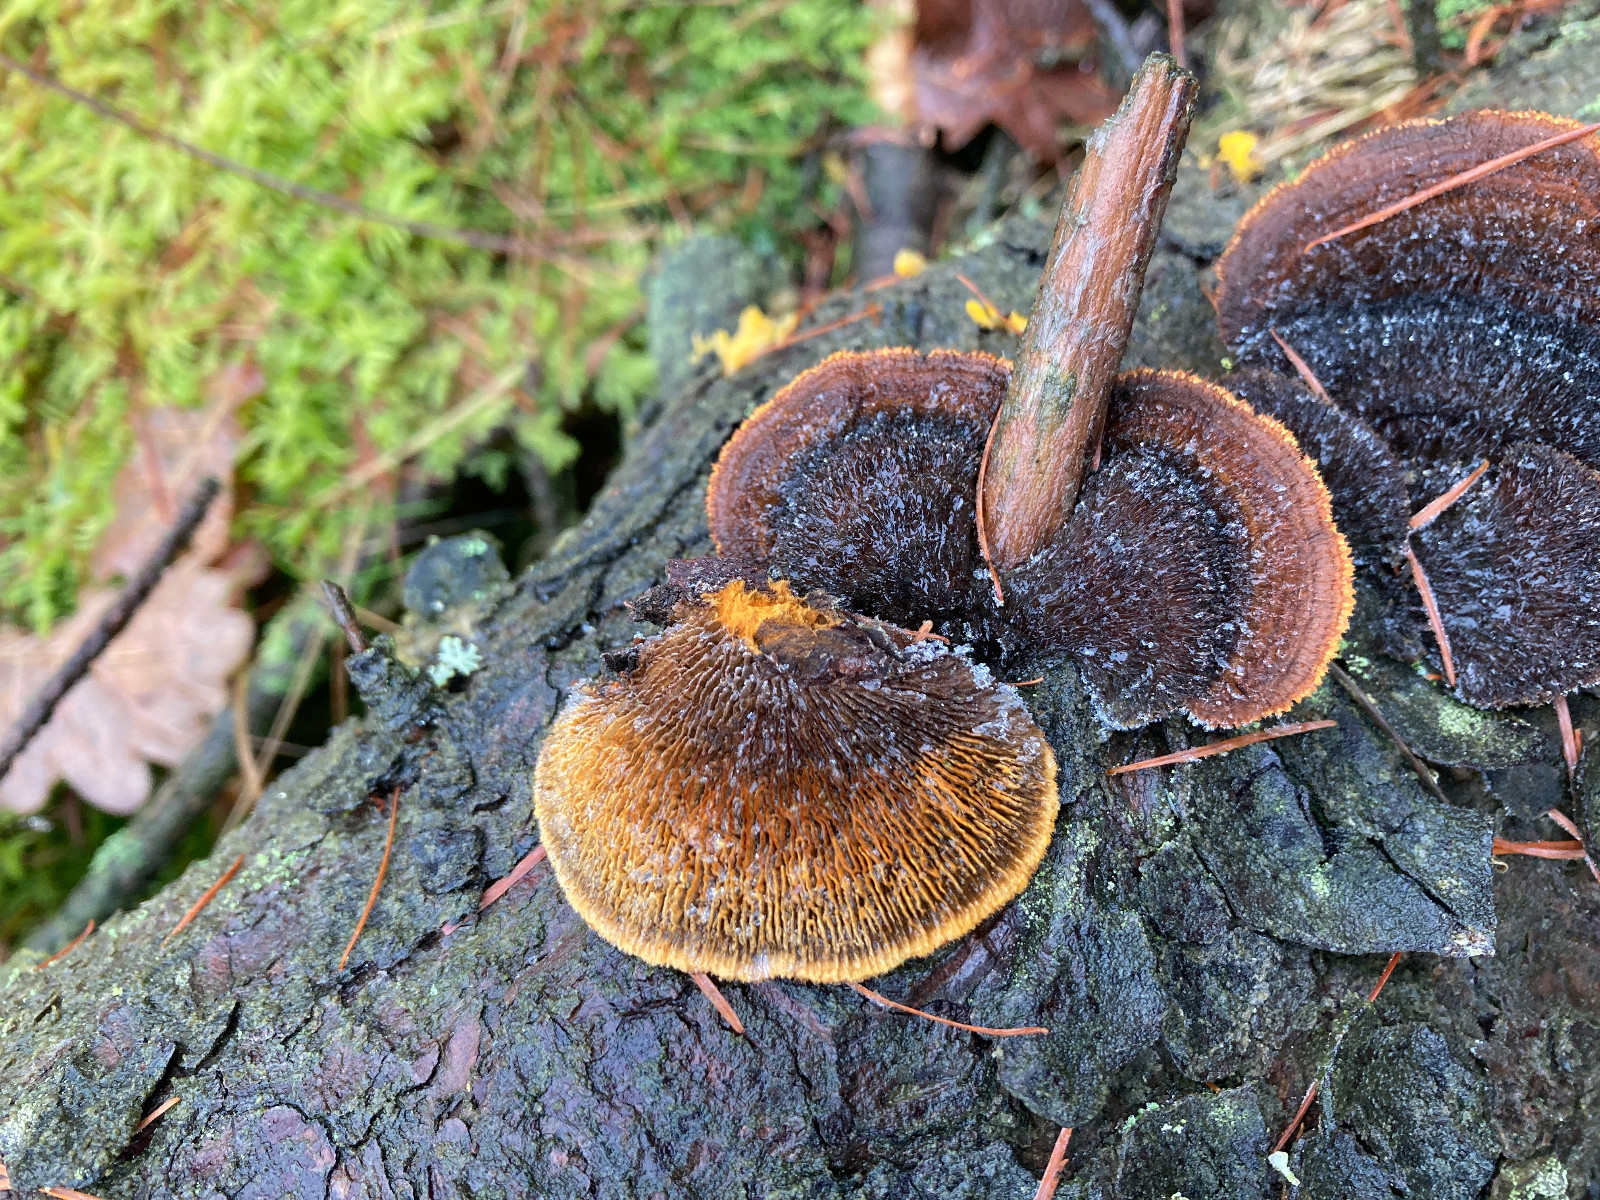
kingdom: Fungi
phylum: Basidiomycota
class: Agaricomycetes
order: Gloeophyllales
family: Gloeophyllaceae
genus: Gloeophyllum
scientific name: Gloeophyllum sepiarium
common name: fyrre-korkhat
